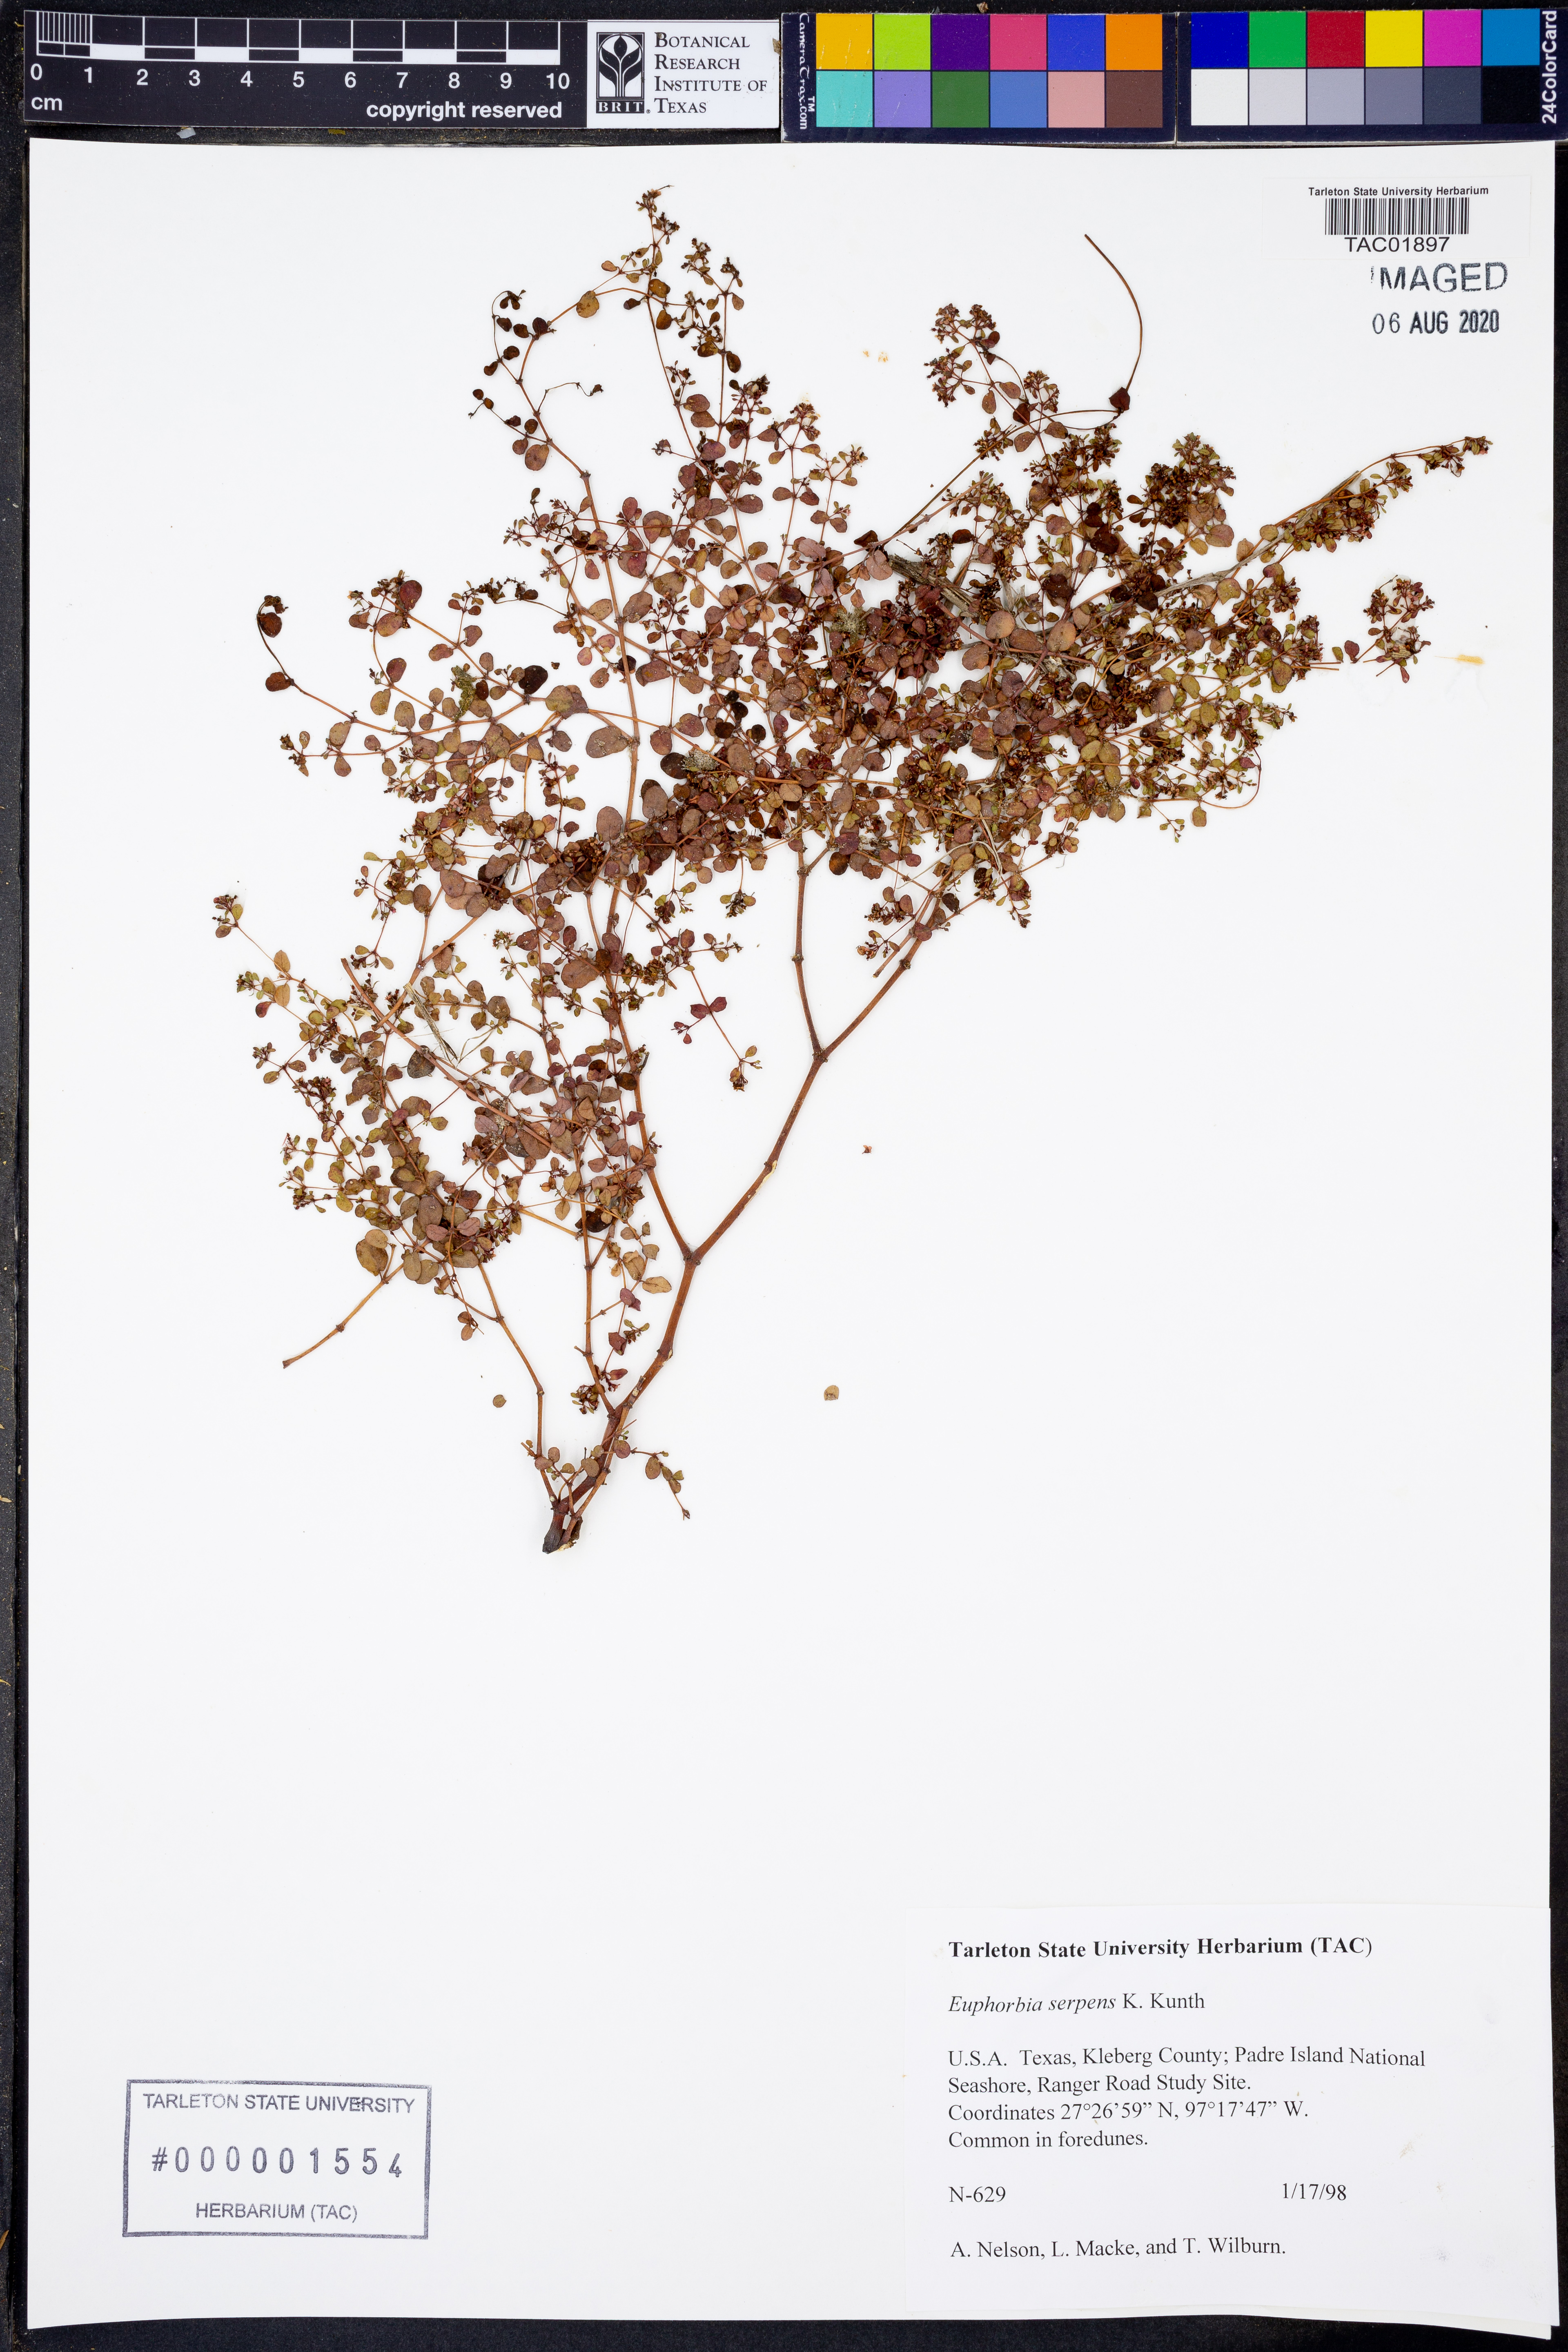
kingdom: Plantae
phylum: Tracheophyta
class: Magnoliopsida
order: Malpighiales
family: Euphorbiaceae
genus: Euphorbia
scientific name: Euphorbia serpens
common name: Matted sandmat
